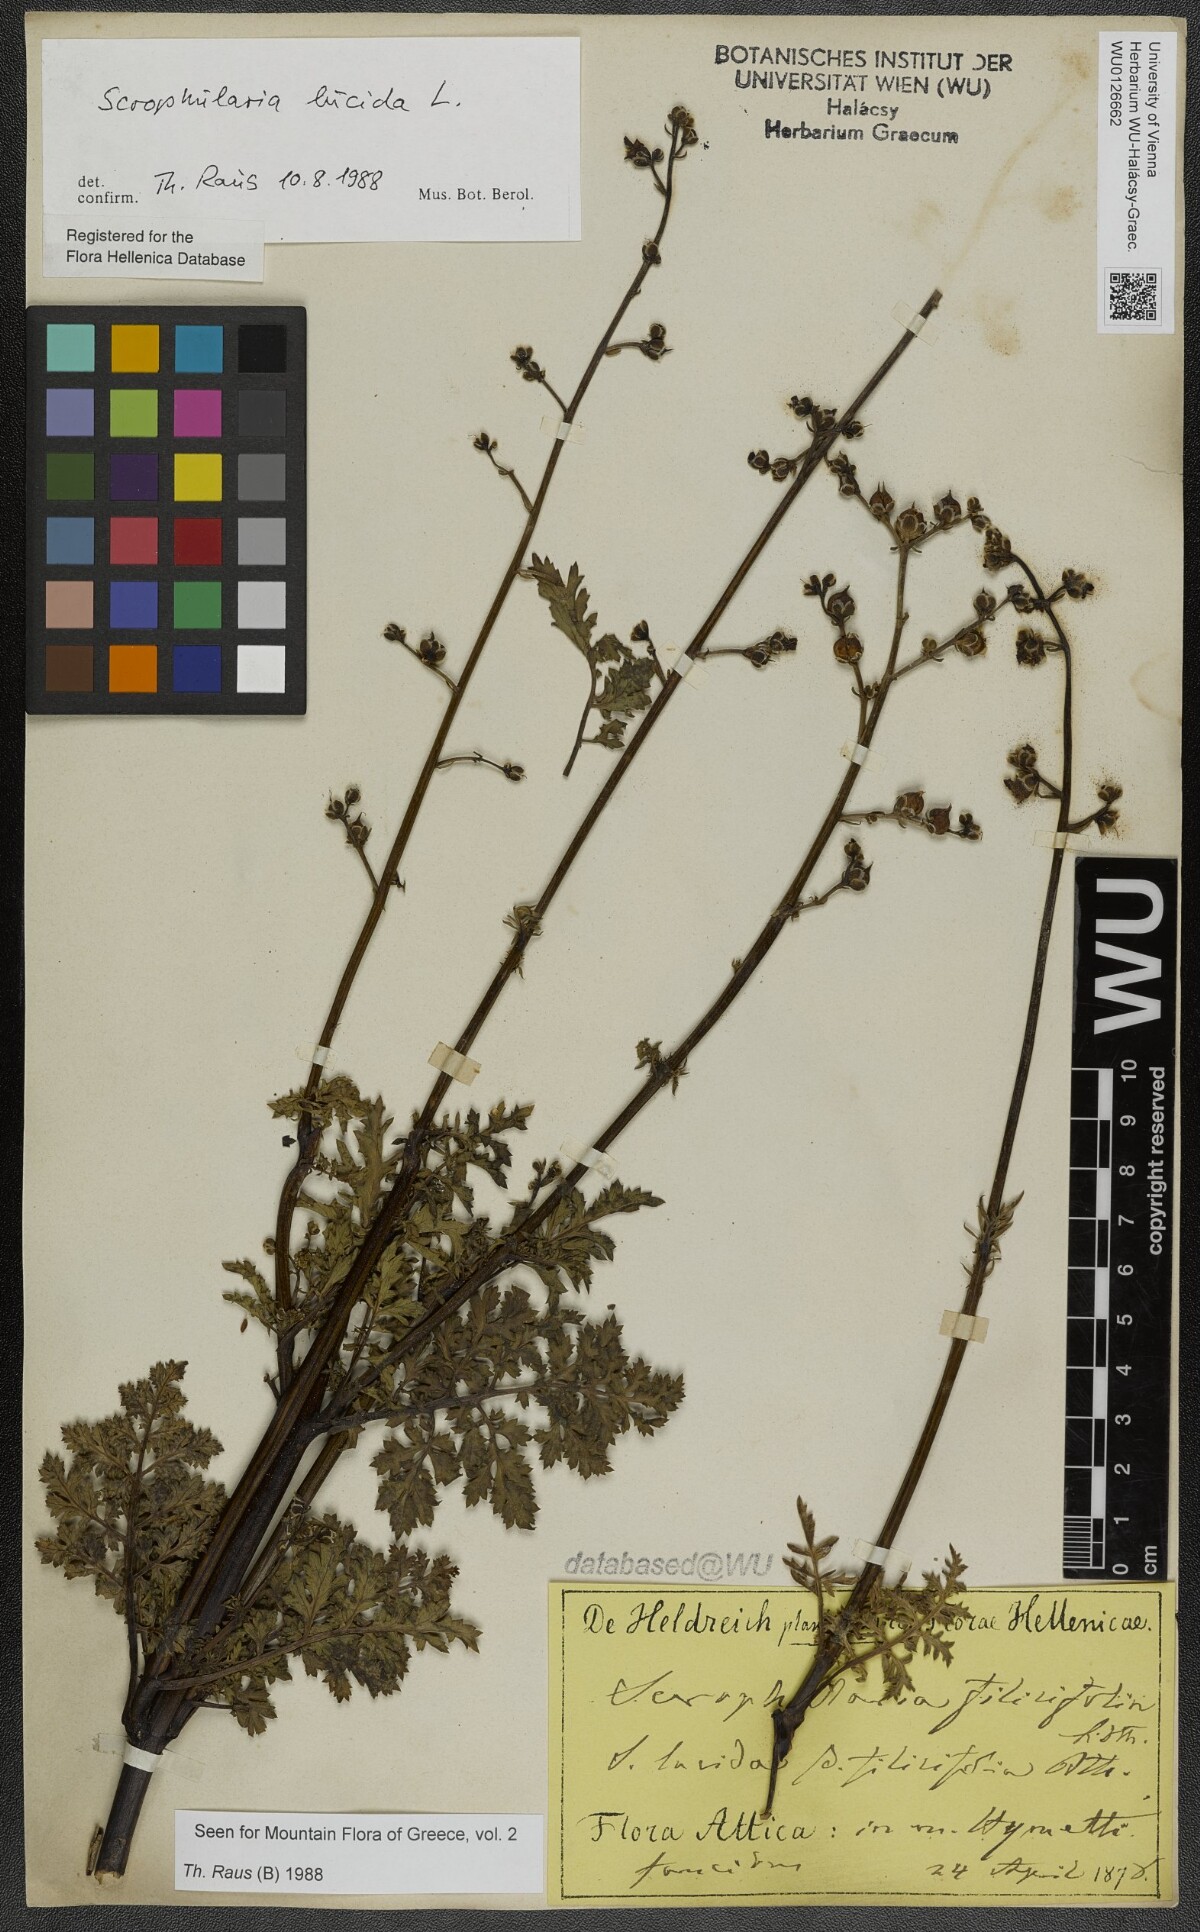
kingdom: Plantae
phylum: Tracheophyta
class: Magnoliopsida
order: Lamiales
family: Scrophulariaceae
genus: Scrophularia
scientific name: Scrophularia lucida
